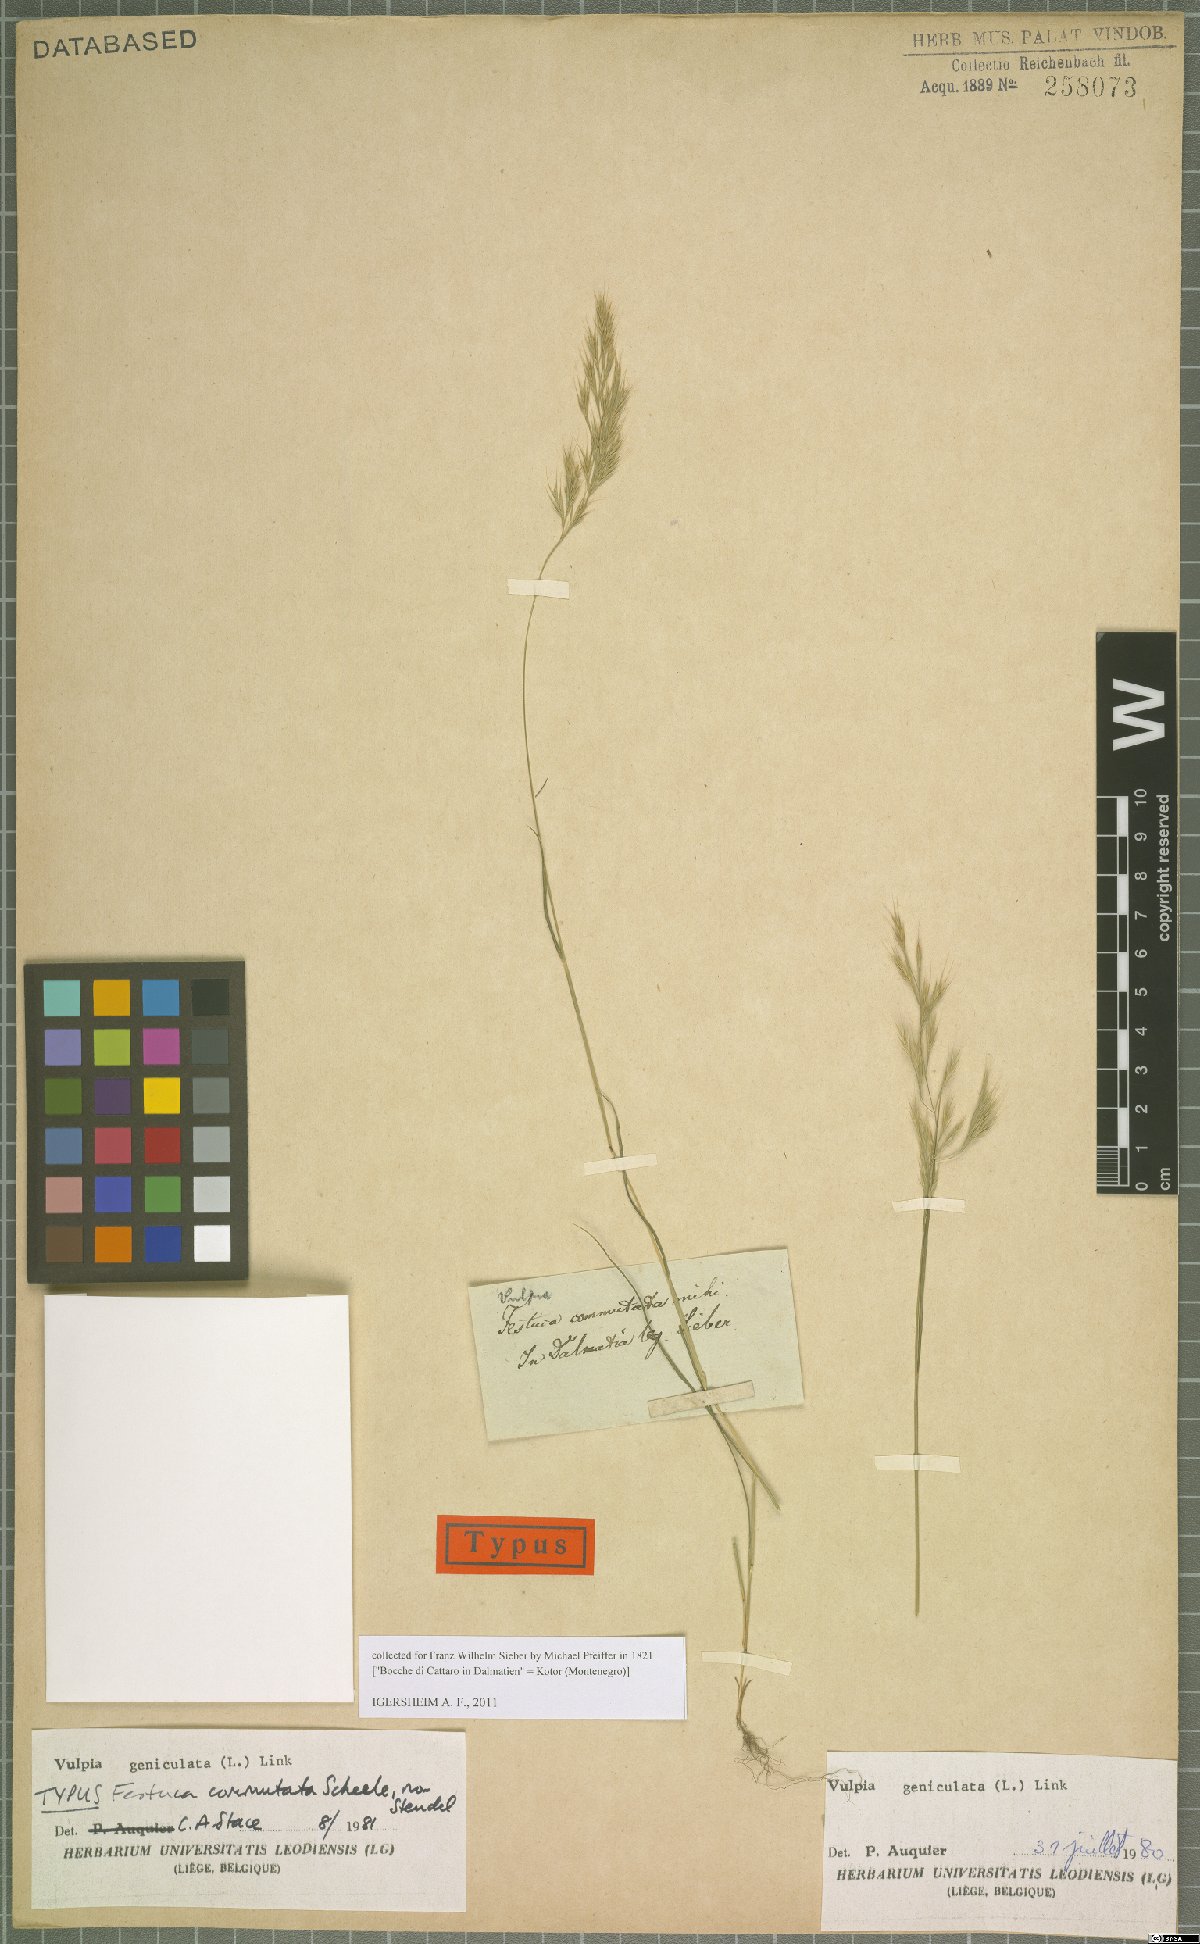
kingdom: Plantae
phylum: Tracheophyta
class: Liliopsida
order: Poales
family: Poaceae
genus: Festuca
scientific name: Festuca geniculata
